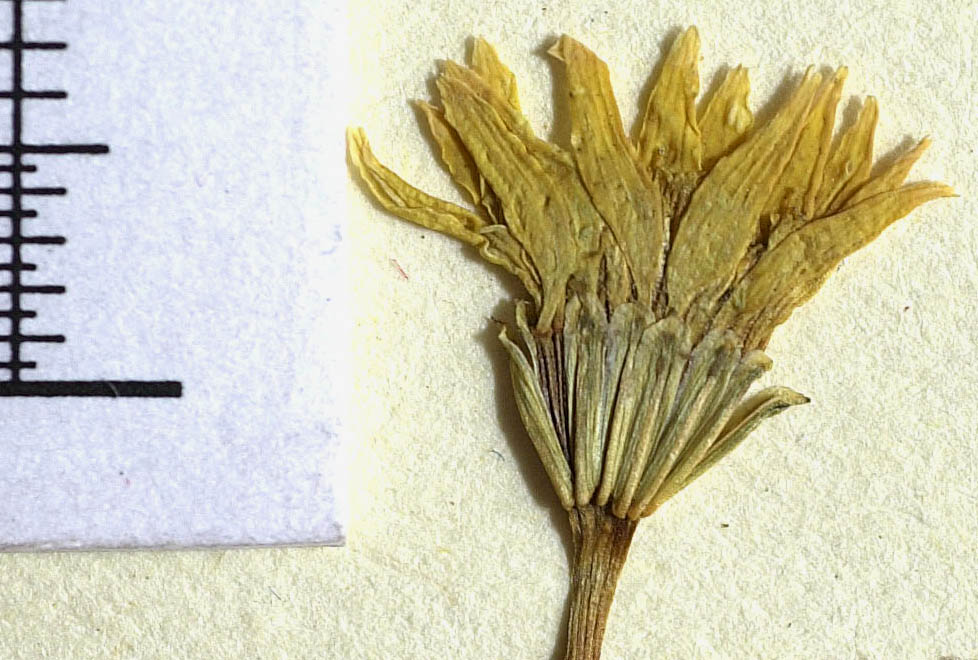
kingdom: Plantae
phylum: Tracheophyta
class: Magnoliopsida
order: Asterales
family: Asteraceae
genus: Pectis
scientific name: Pectis rusbyi
